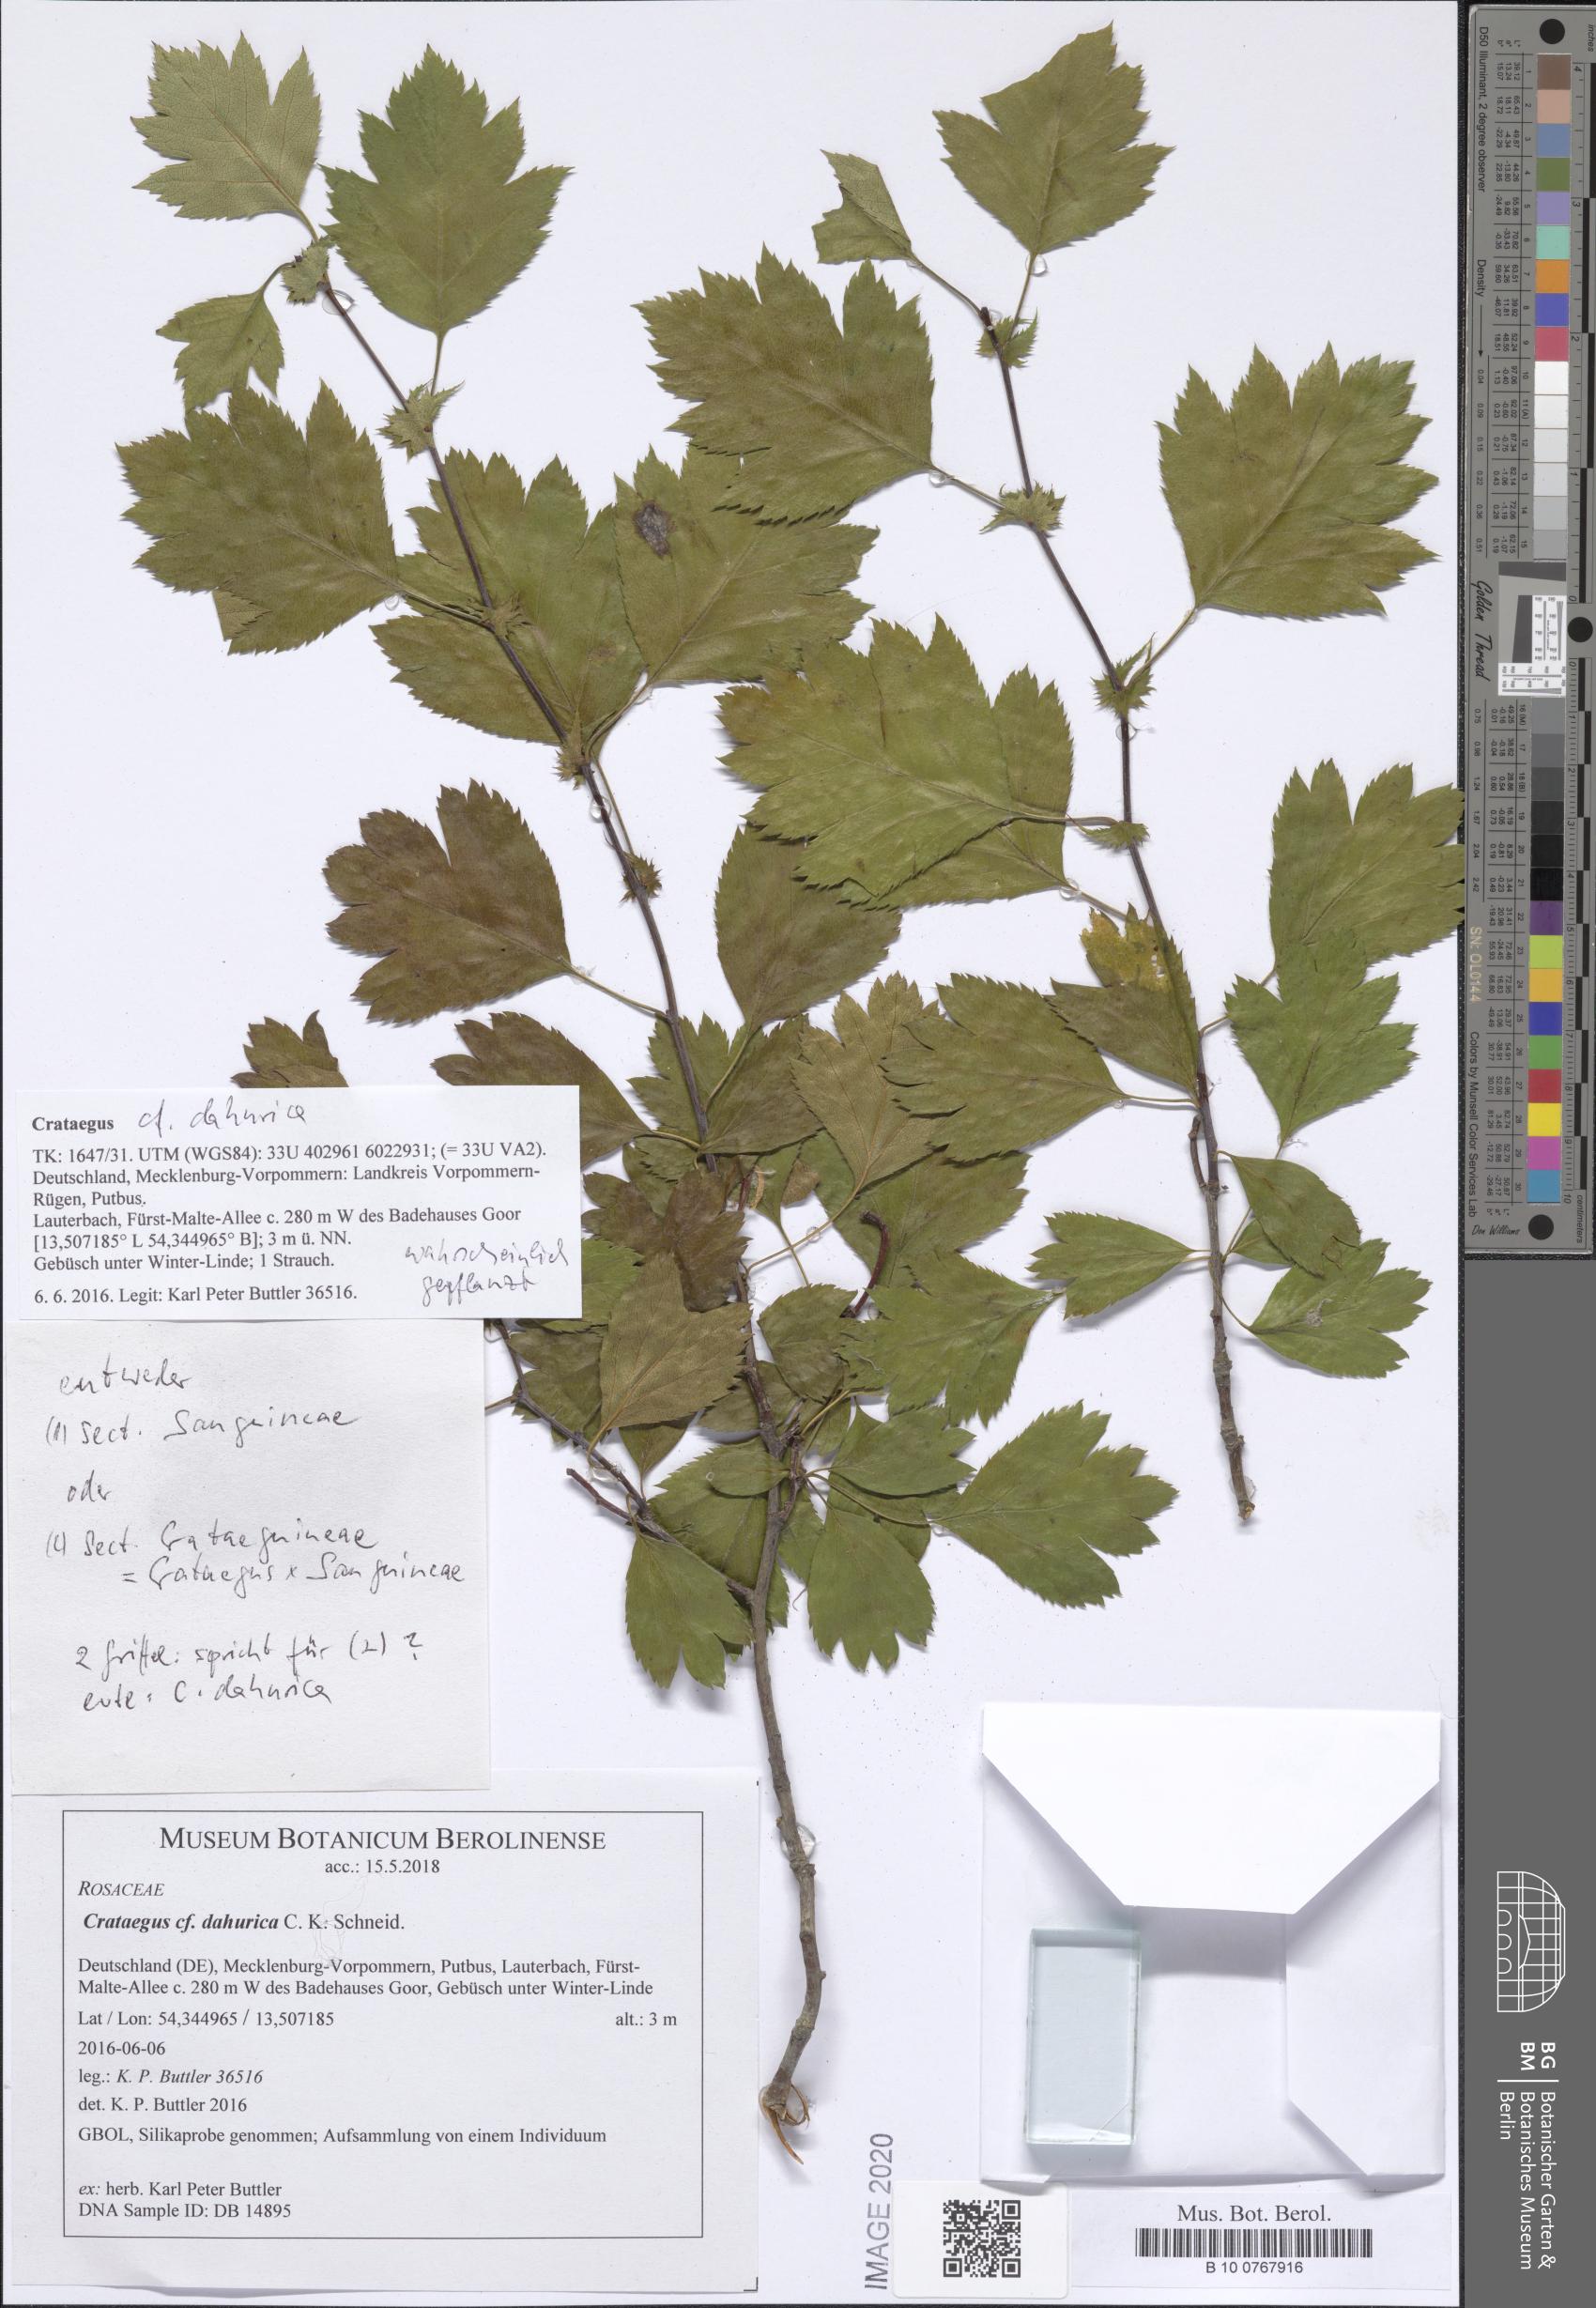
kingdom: Plantae
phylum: Tracheophyta
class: Magnoliopsida
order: Rosales
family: Rosaceae
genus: Crataegus
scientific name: Crataegus dahurica
